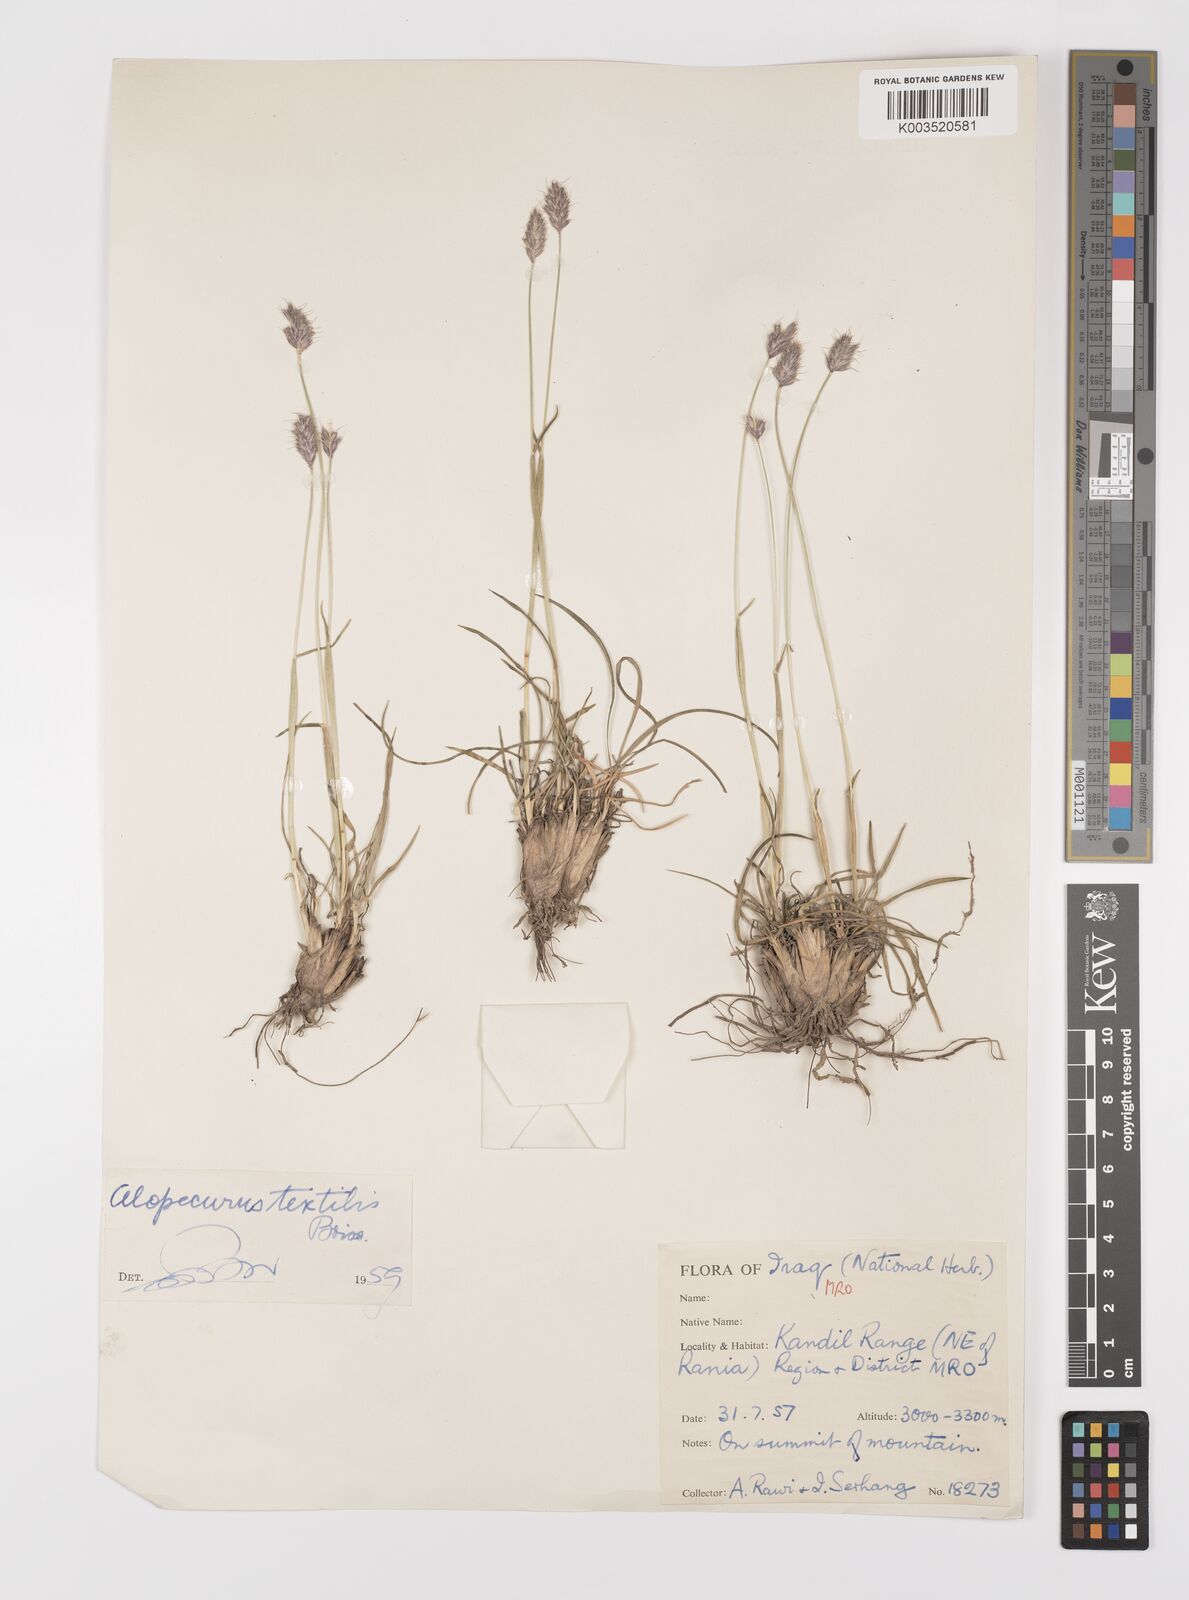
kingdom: Plantae
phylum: Tracheophyta
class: Liliopsida
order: Poales
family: Poaceae
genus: Alopecurus
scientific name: Alopecurus textilis
